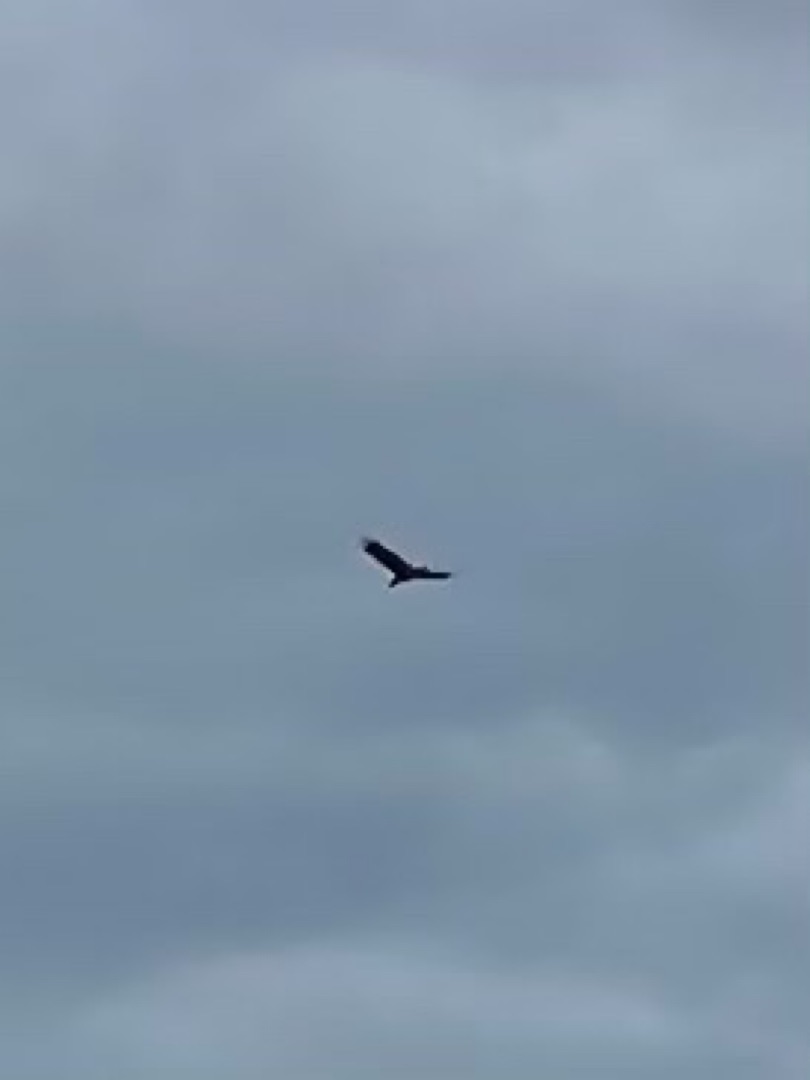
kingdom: Animalia
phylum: Chordata
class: Aves
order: Accipitriformes
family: Accipitridae
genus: Haliaeetus
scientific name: Haliaeetus albicilla
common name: Havørn
